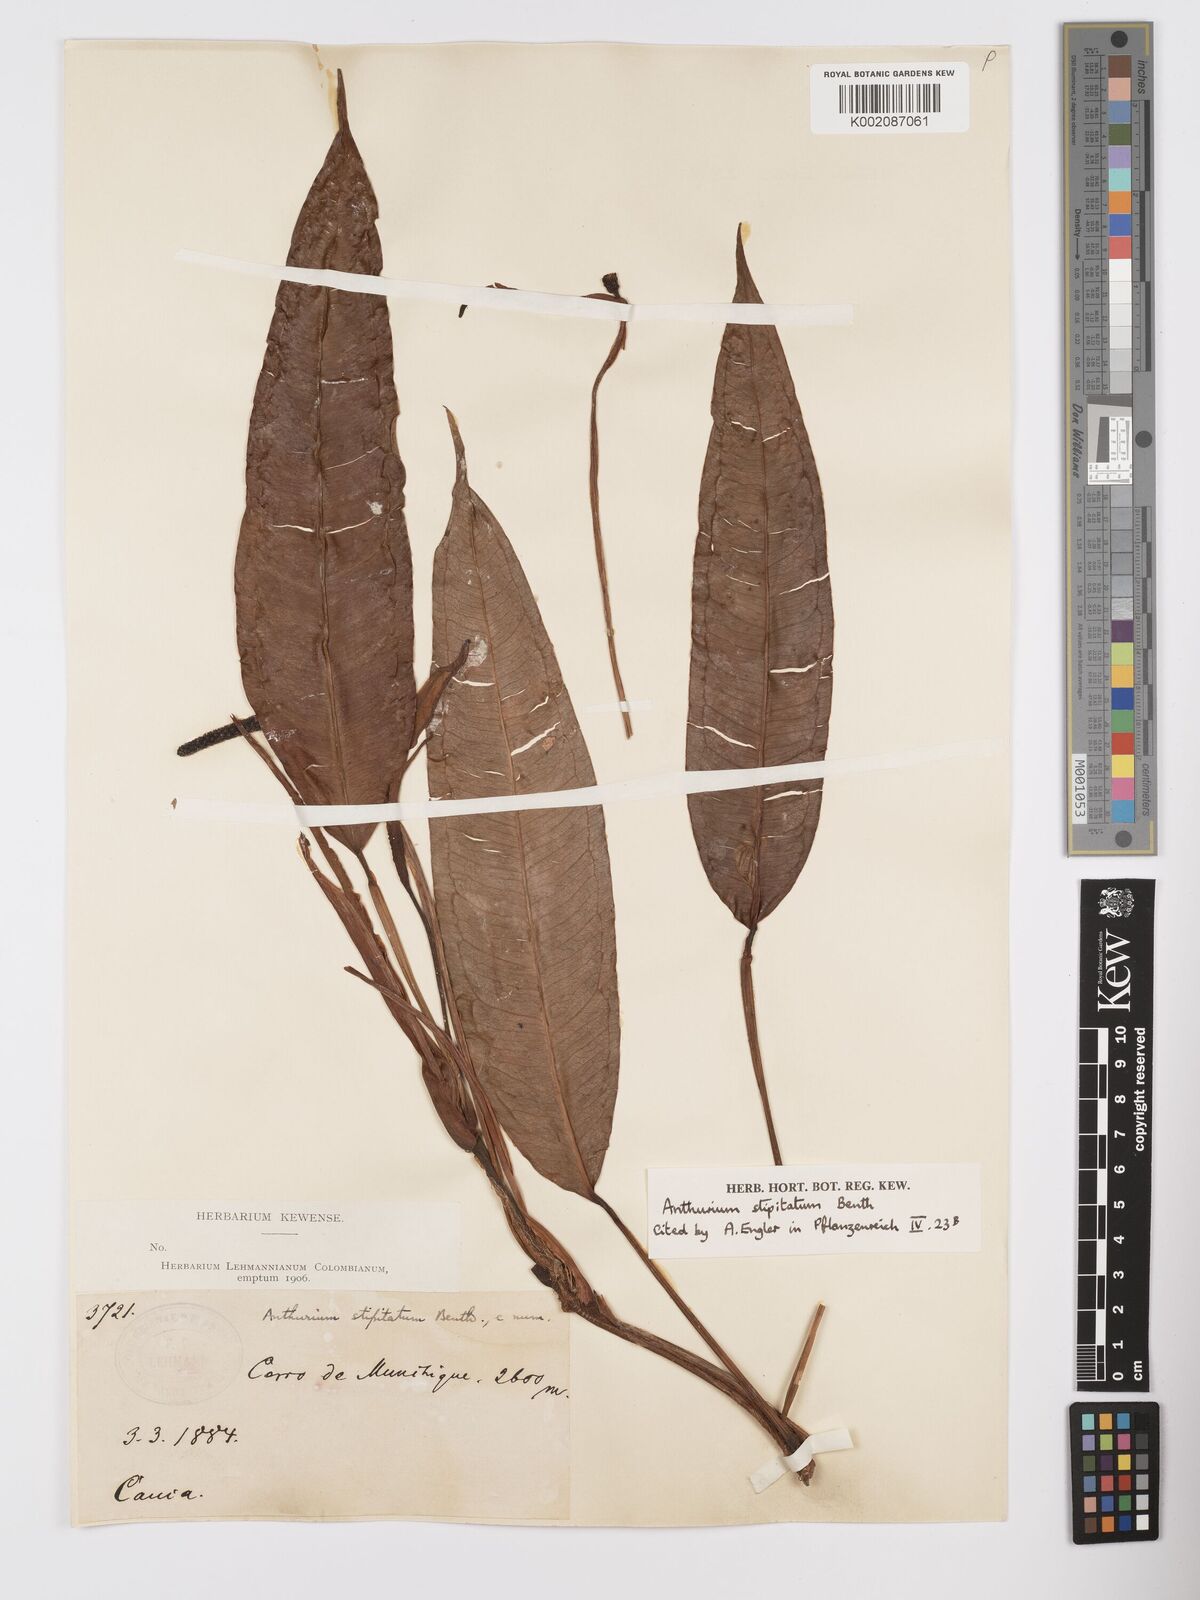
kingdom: Plantae
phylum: Tracheophyta
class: Liliopsida
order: Alismatales
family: Araceae
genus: Anthurium
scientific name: Anthurium stipitatum
